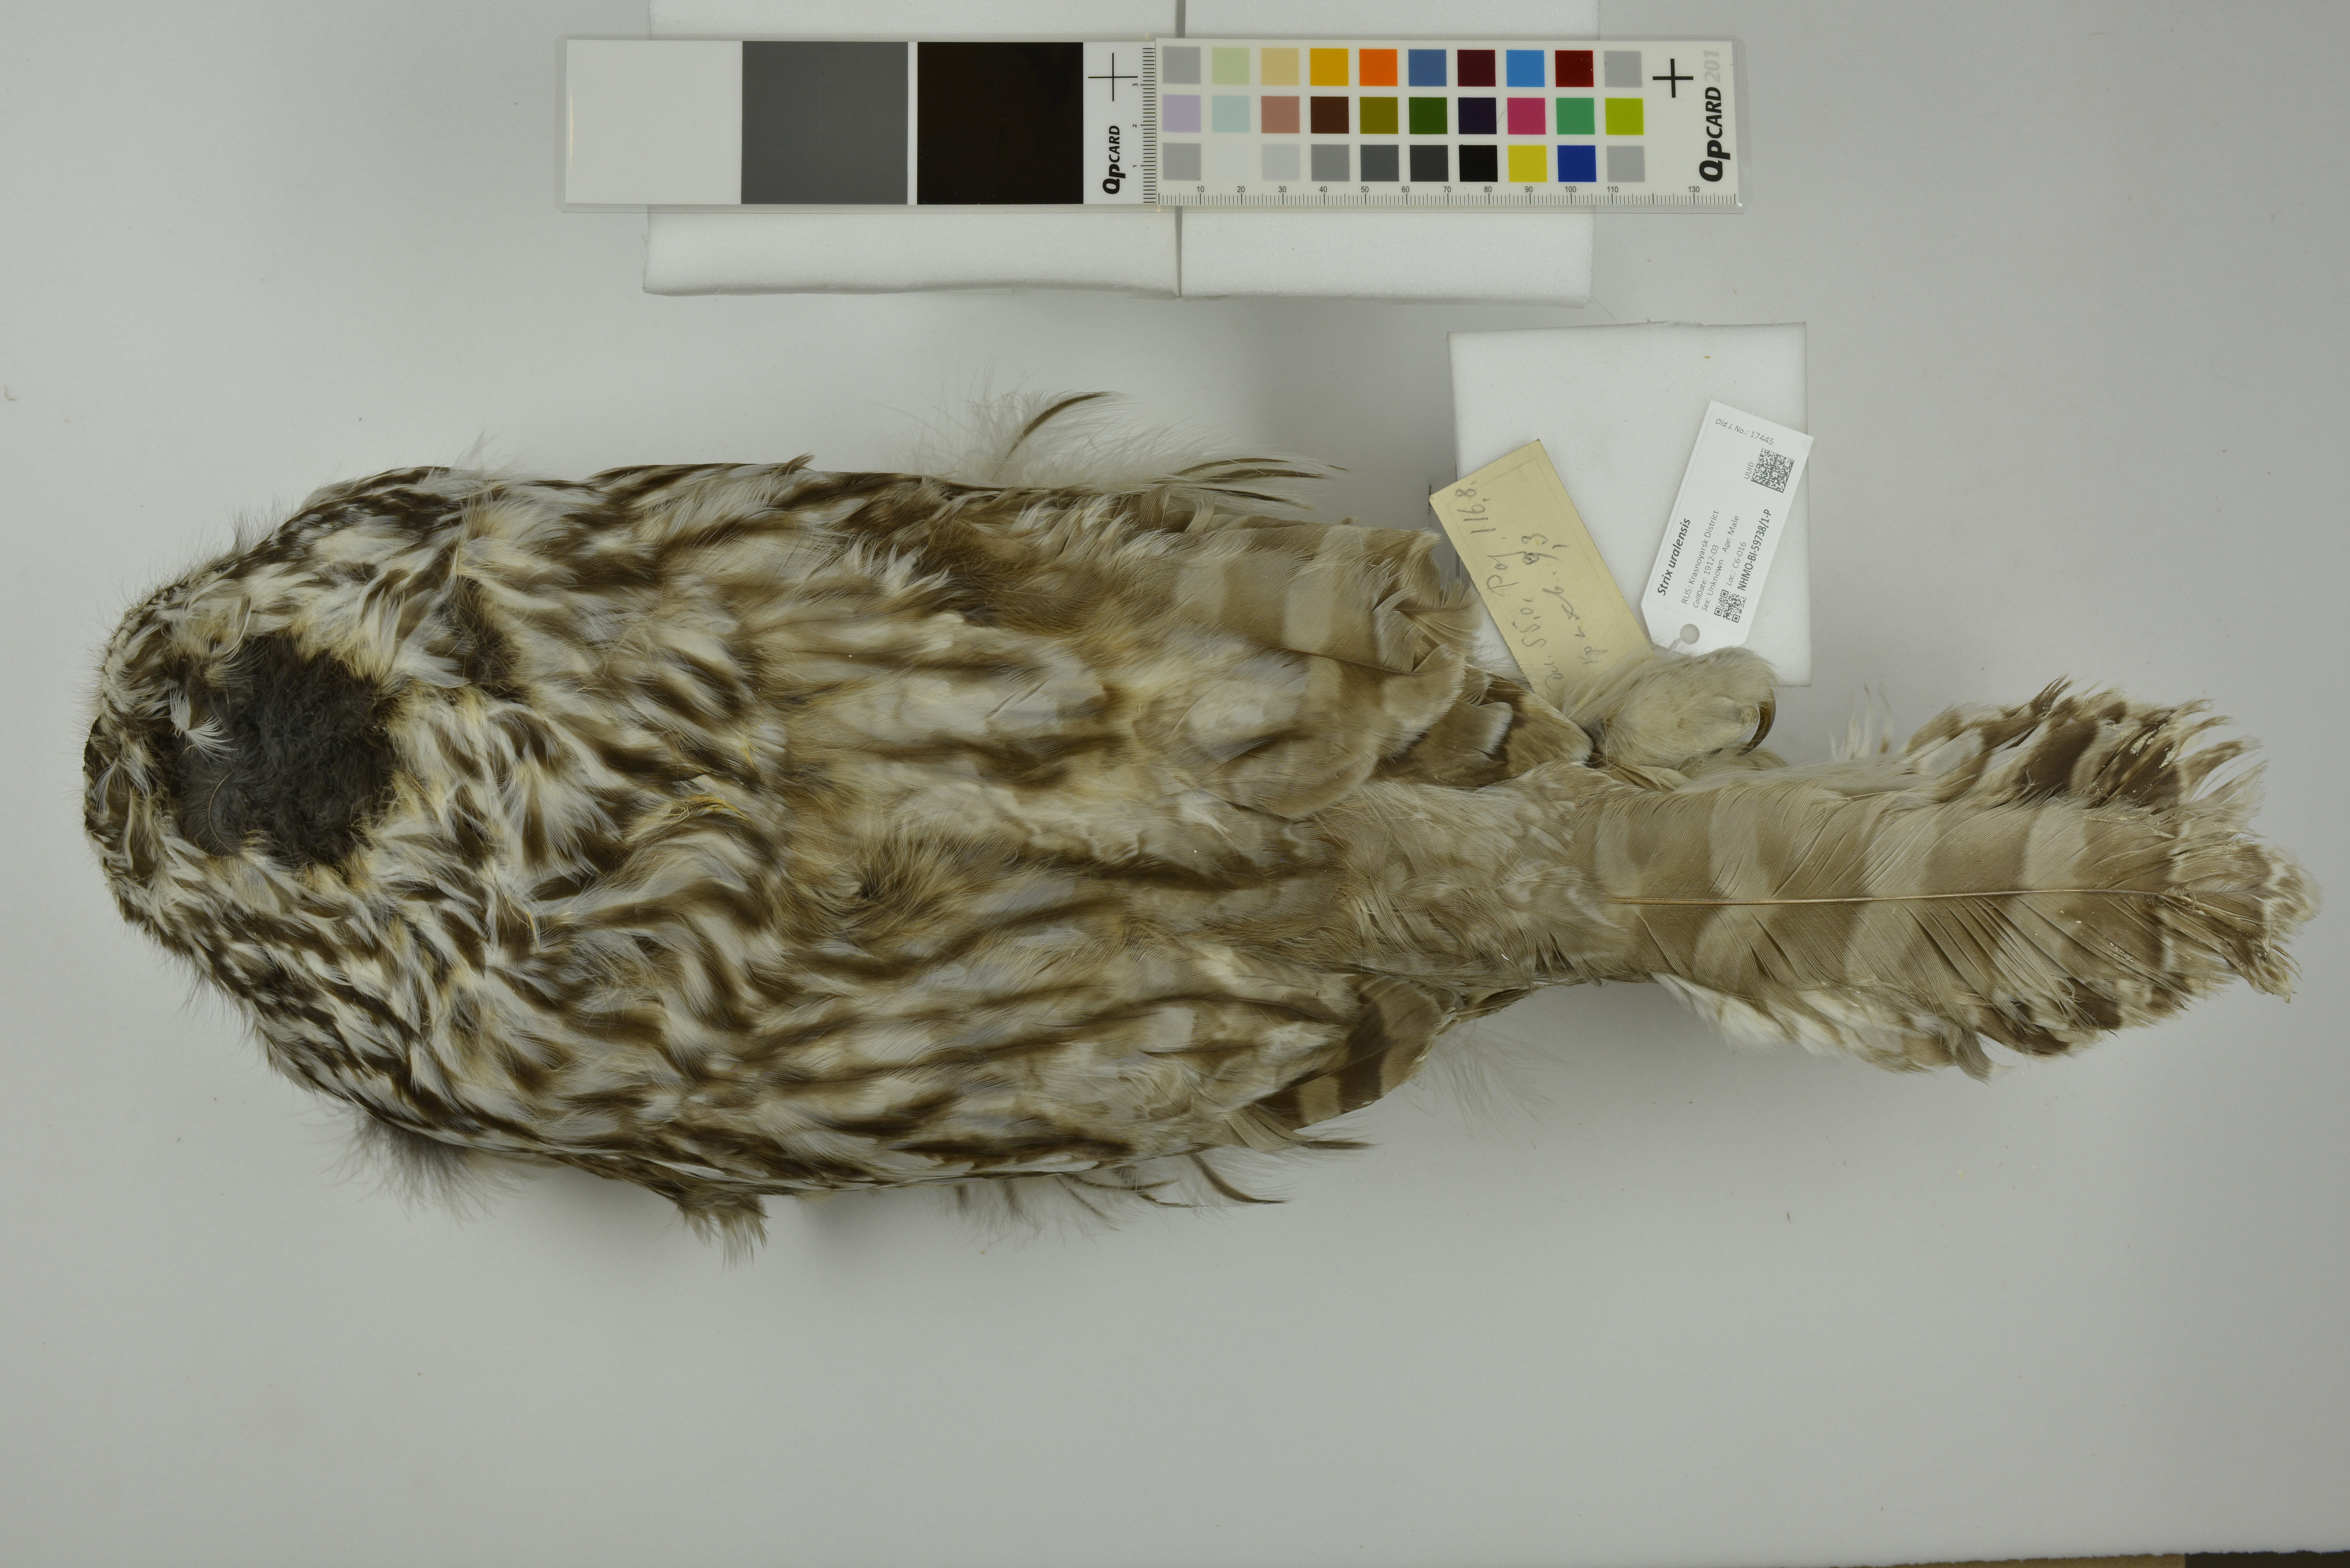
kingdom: Animalia
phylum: Chordata
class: Aves
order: Strigiformes
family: Strigidae
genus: Strix
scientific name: Strix uralensis
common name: Ural owl
